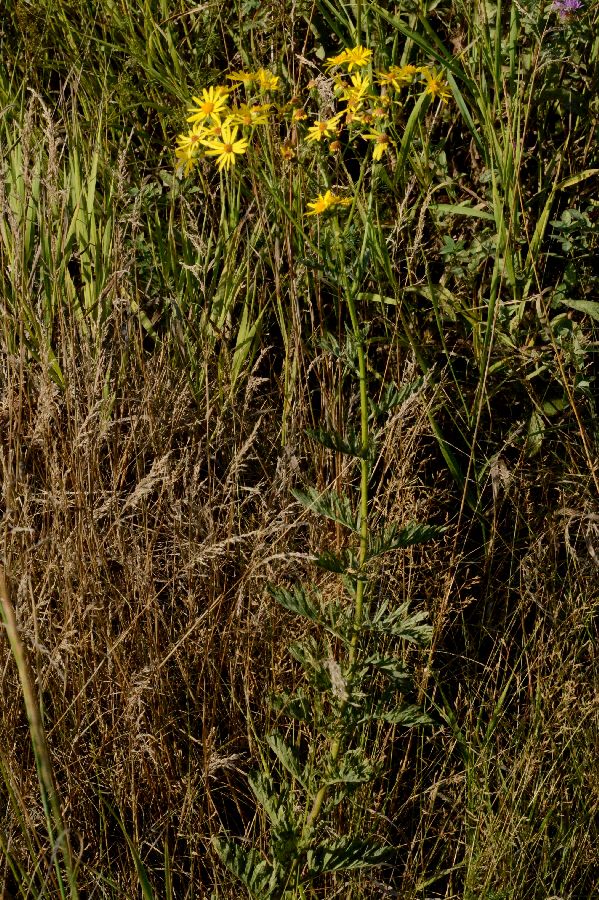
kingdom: Plantae
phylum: Tracheophyta
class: Magnoliopsida
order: Asterales
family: Asteraceae
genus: Jacobaea
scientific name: Jacobaea erucifolia
